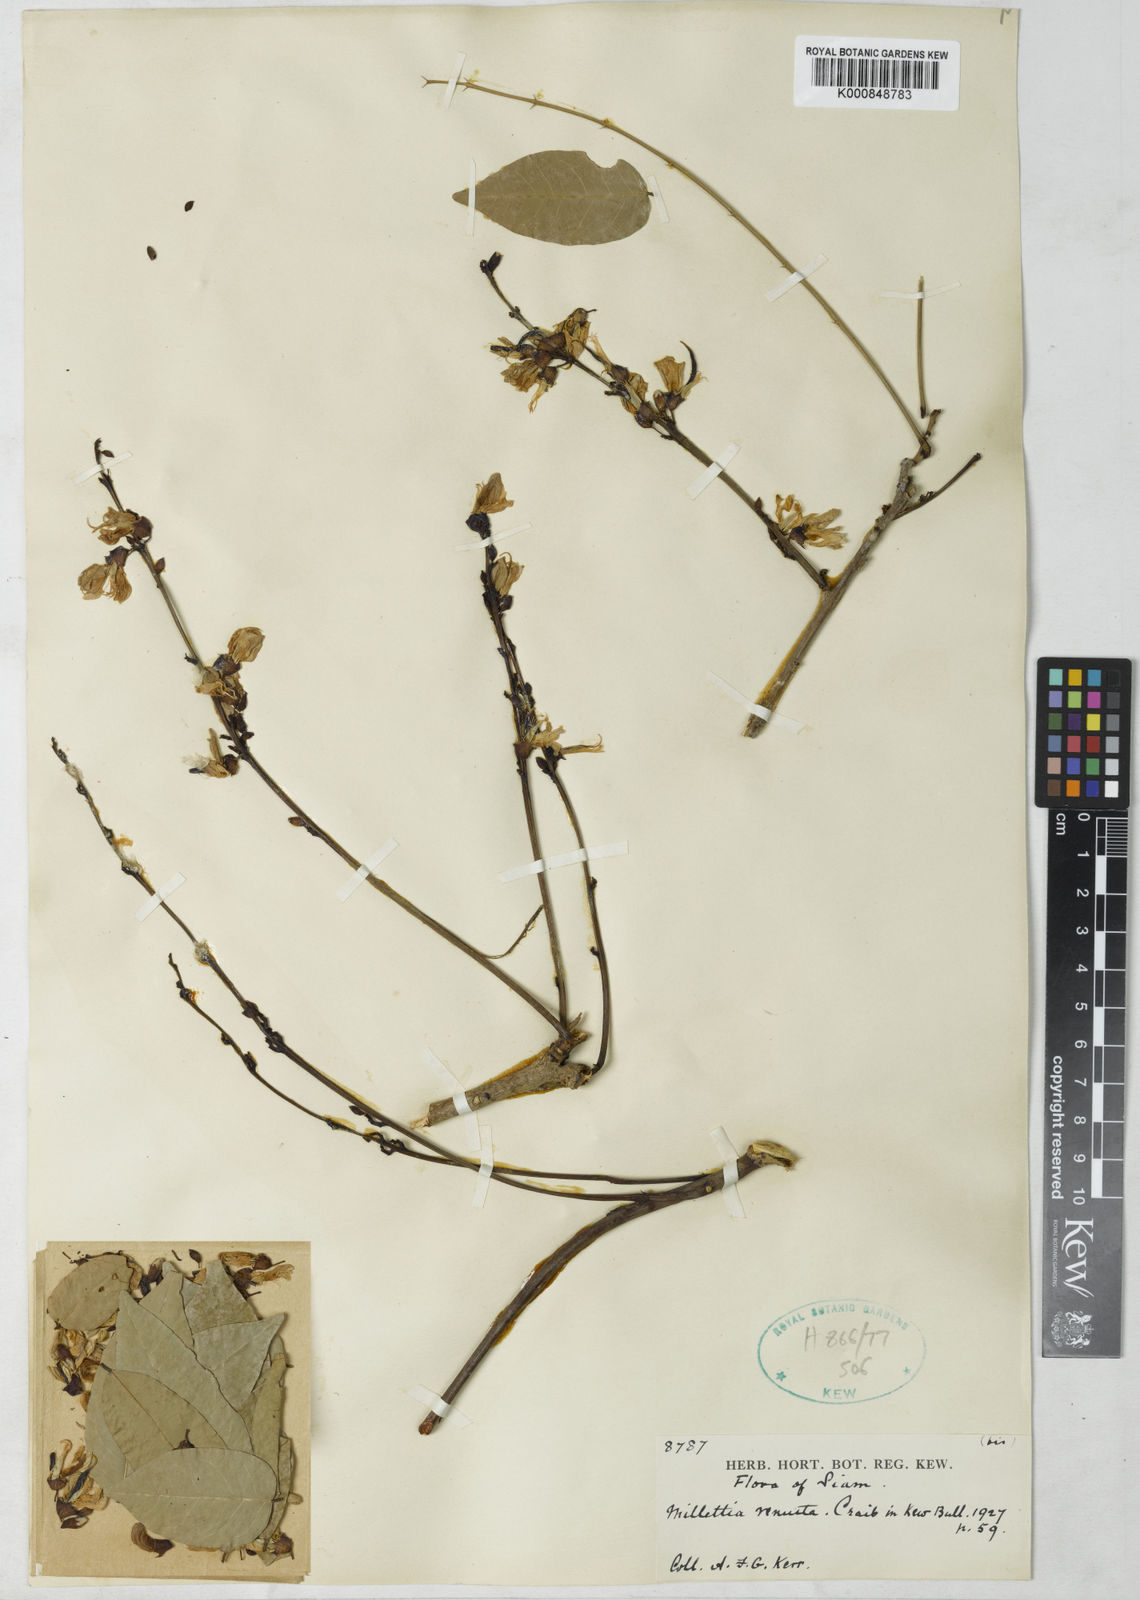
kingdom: Plantae
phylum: Tracheophyta
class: Magnoliopsida
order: Fabales
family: Fabaceae
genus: Millettia
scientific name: Millettia brandisiana
